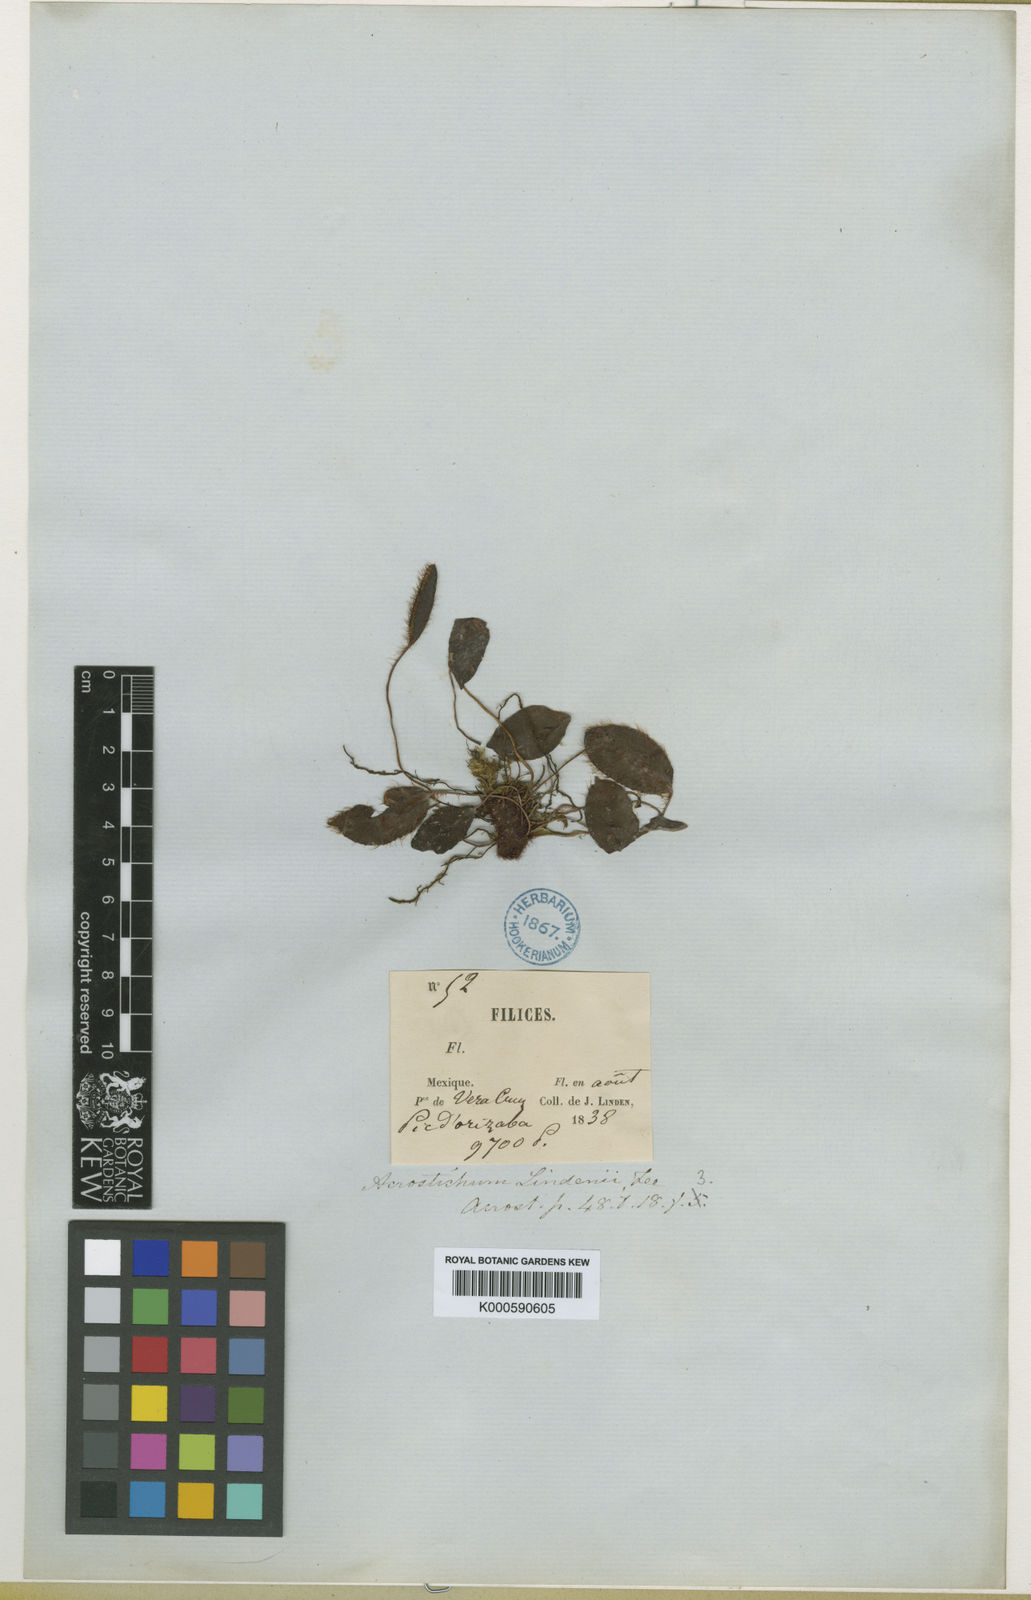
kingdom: Plantae
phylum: Tracheophyta
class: Polypodiopsida
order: Polypodiales
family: Dryopteridaceae
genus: Elaphoglossum
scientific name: Elaphoglossum
